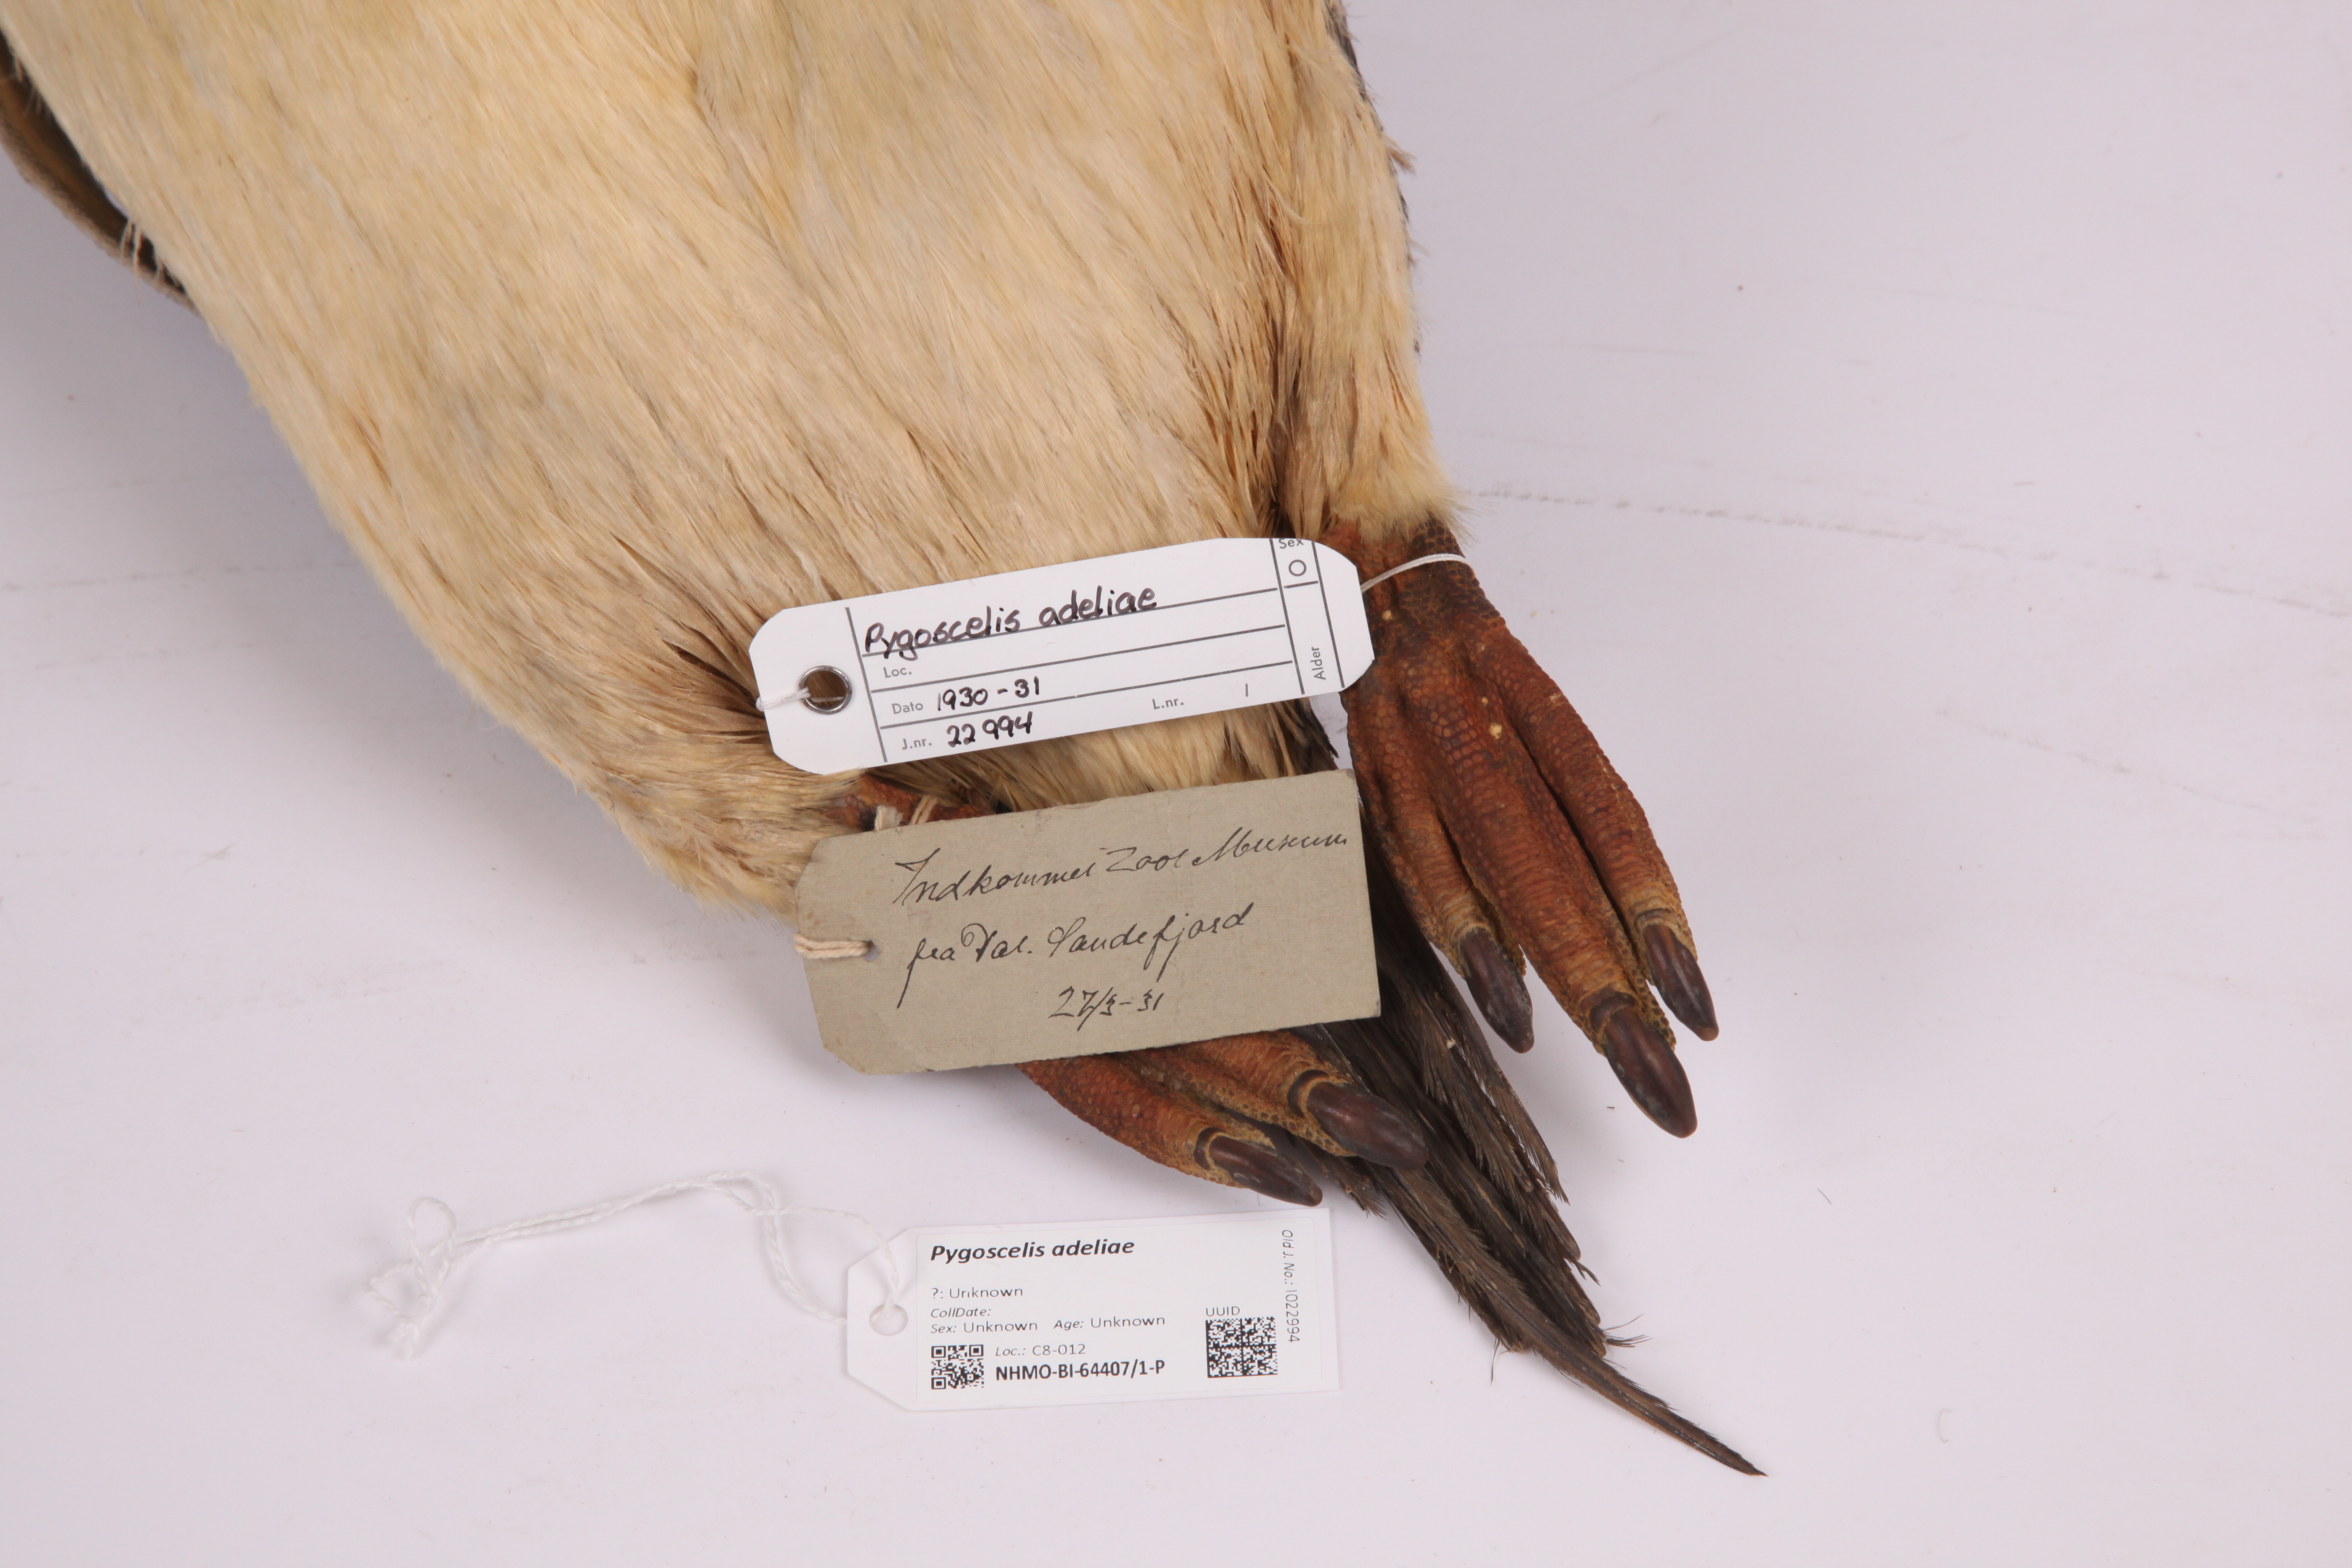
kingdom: Animalia
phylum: Chordata
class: Aves
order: Sphenisciformes
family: Spheniscidae
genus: Pygoscelis
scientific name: Pygoscelis adeliae
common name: Adelie penguin
